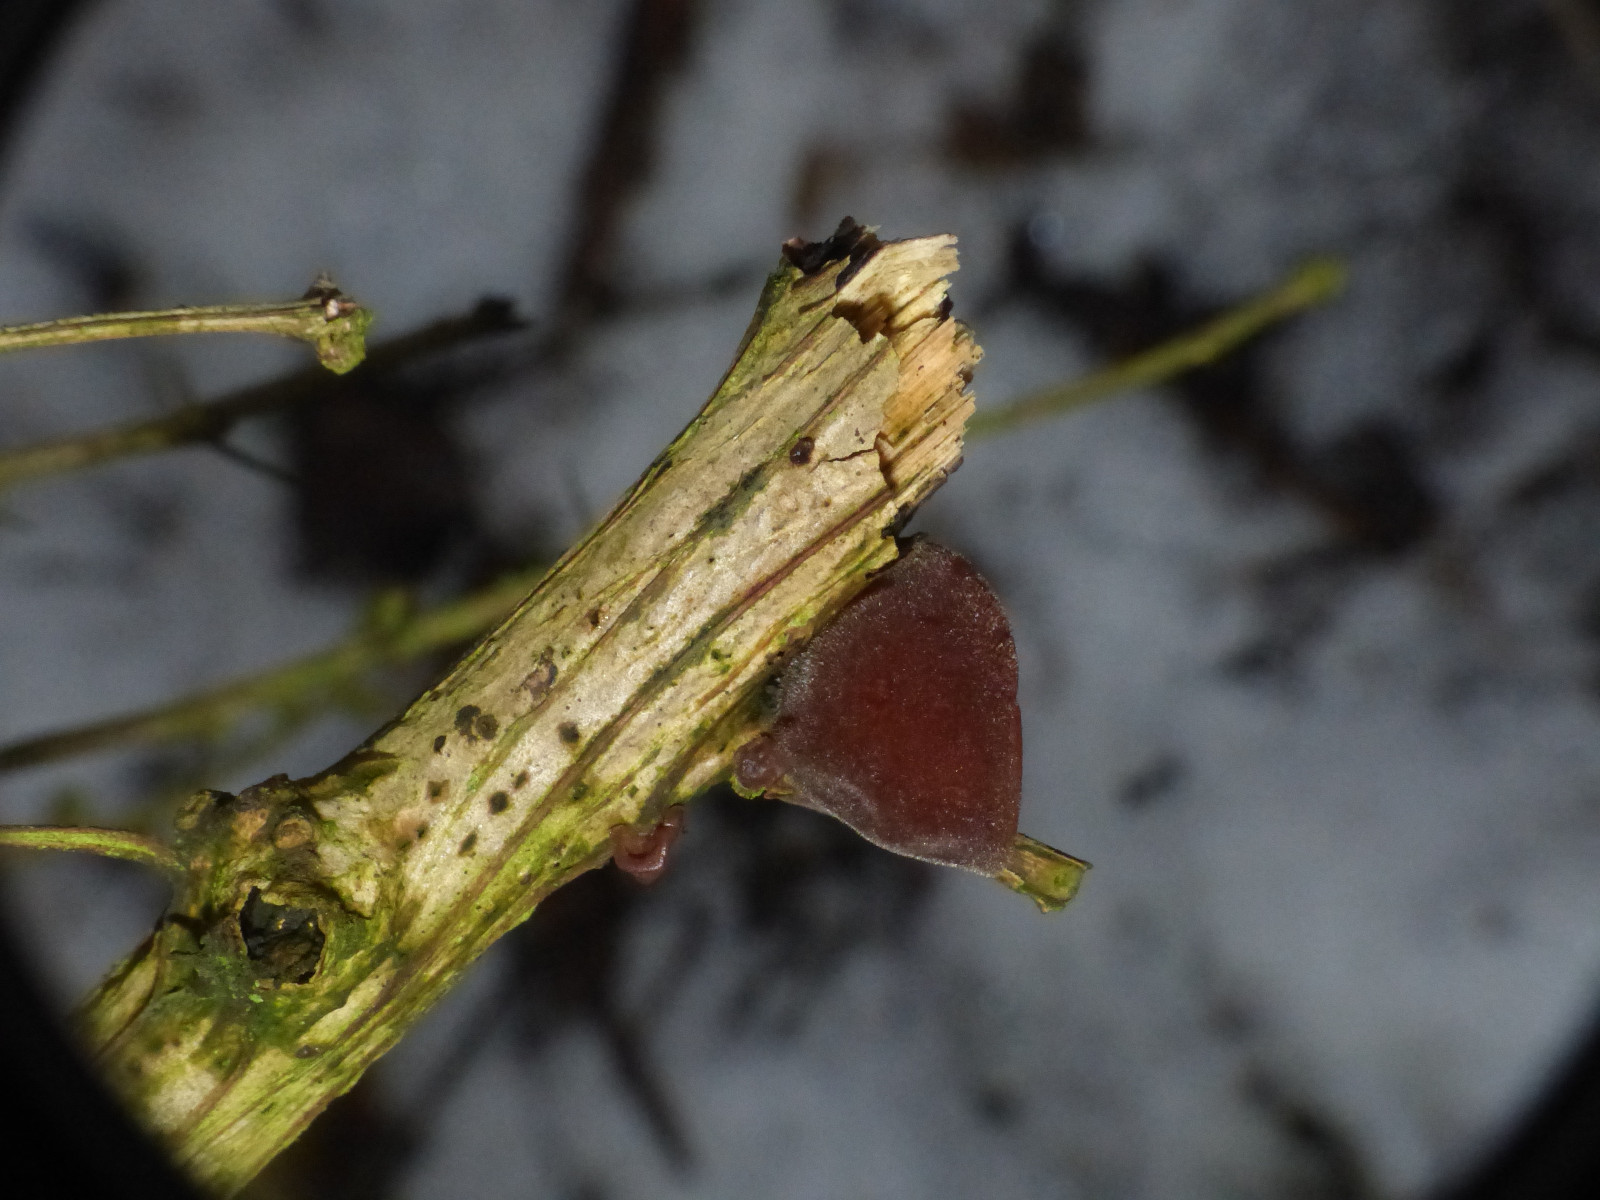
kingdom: Fungi
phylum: Basidiomycota
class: Agaricomycetes
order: Auriculariales
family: Auriculariaceae
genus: Auricularia
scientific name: Auricularia auricula-judae
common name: almindelig judasøre
